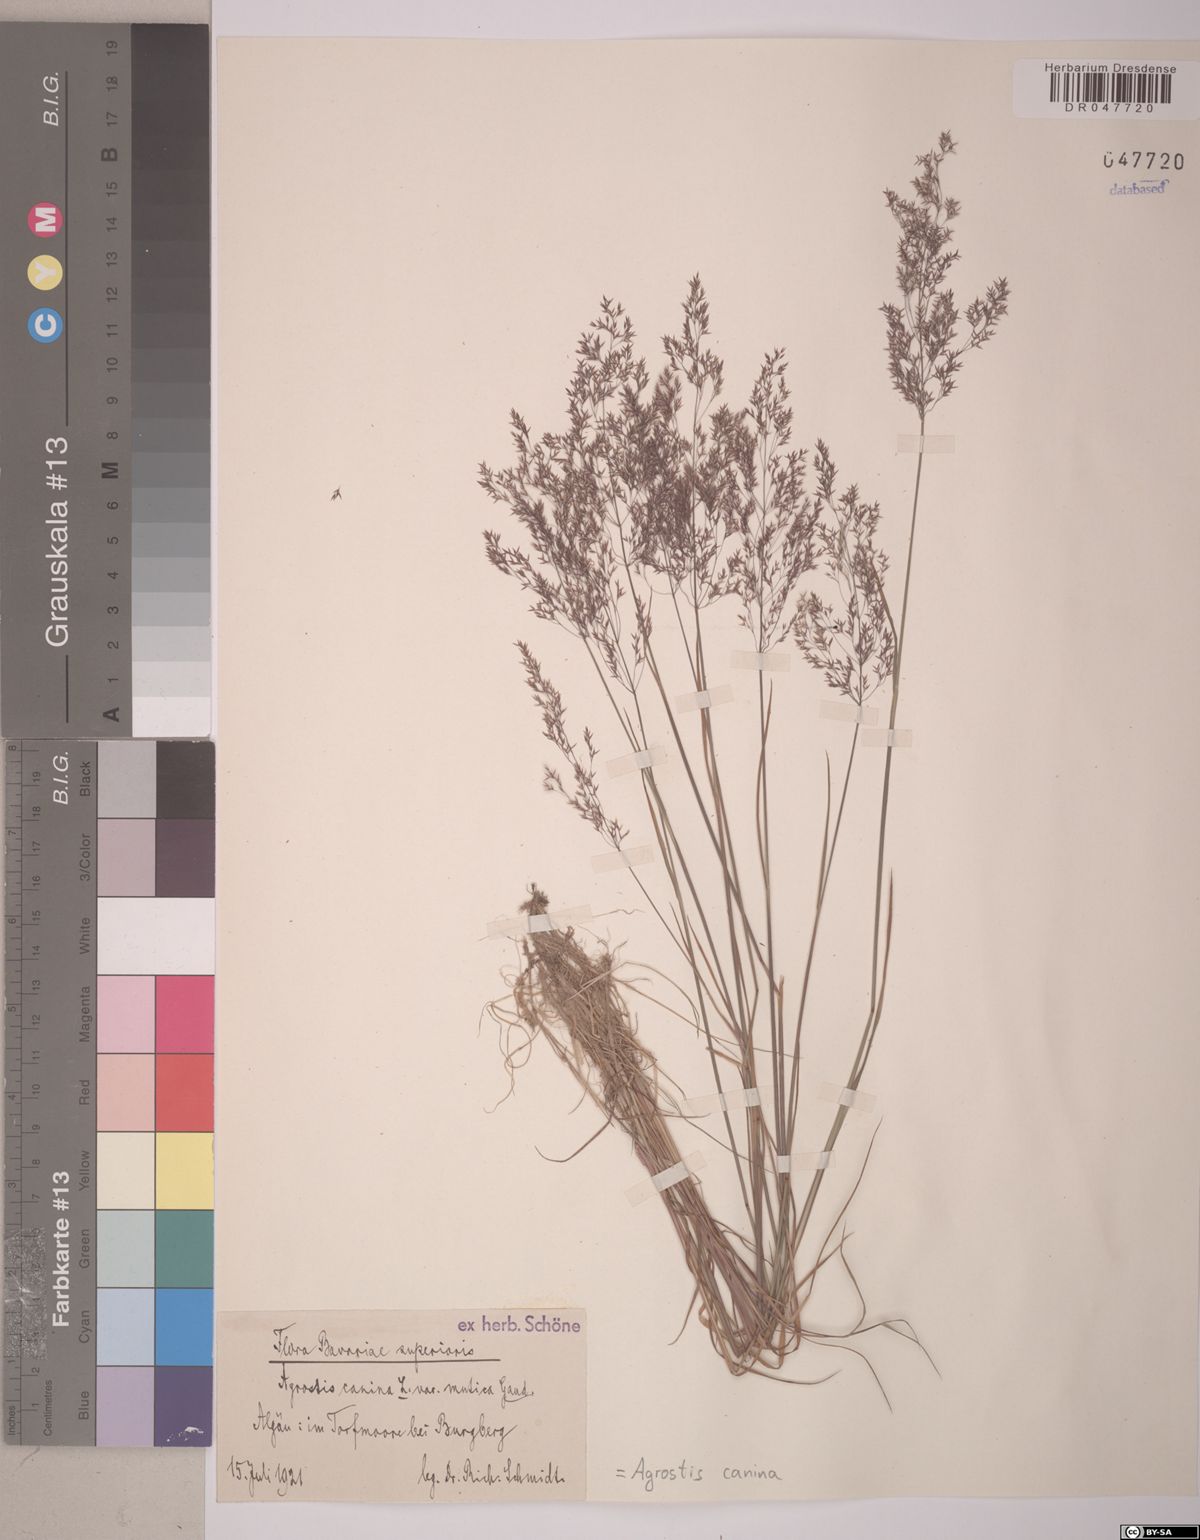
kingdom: Plantae
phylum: Tracheophyta
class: Liliopsida
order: Poales
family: Poaceae
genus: Agrostis
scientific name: Agrostis canina
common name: Velvet bent
